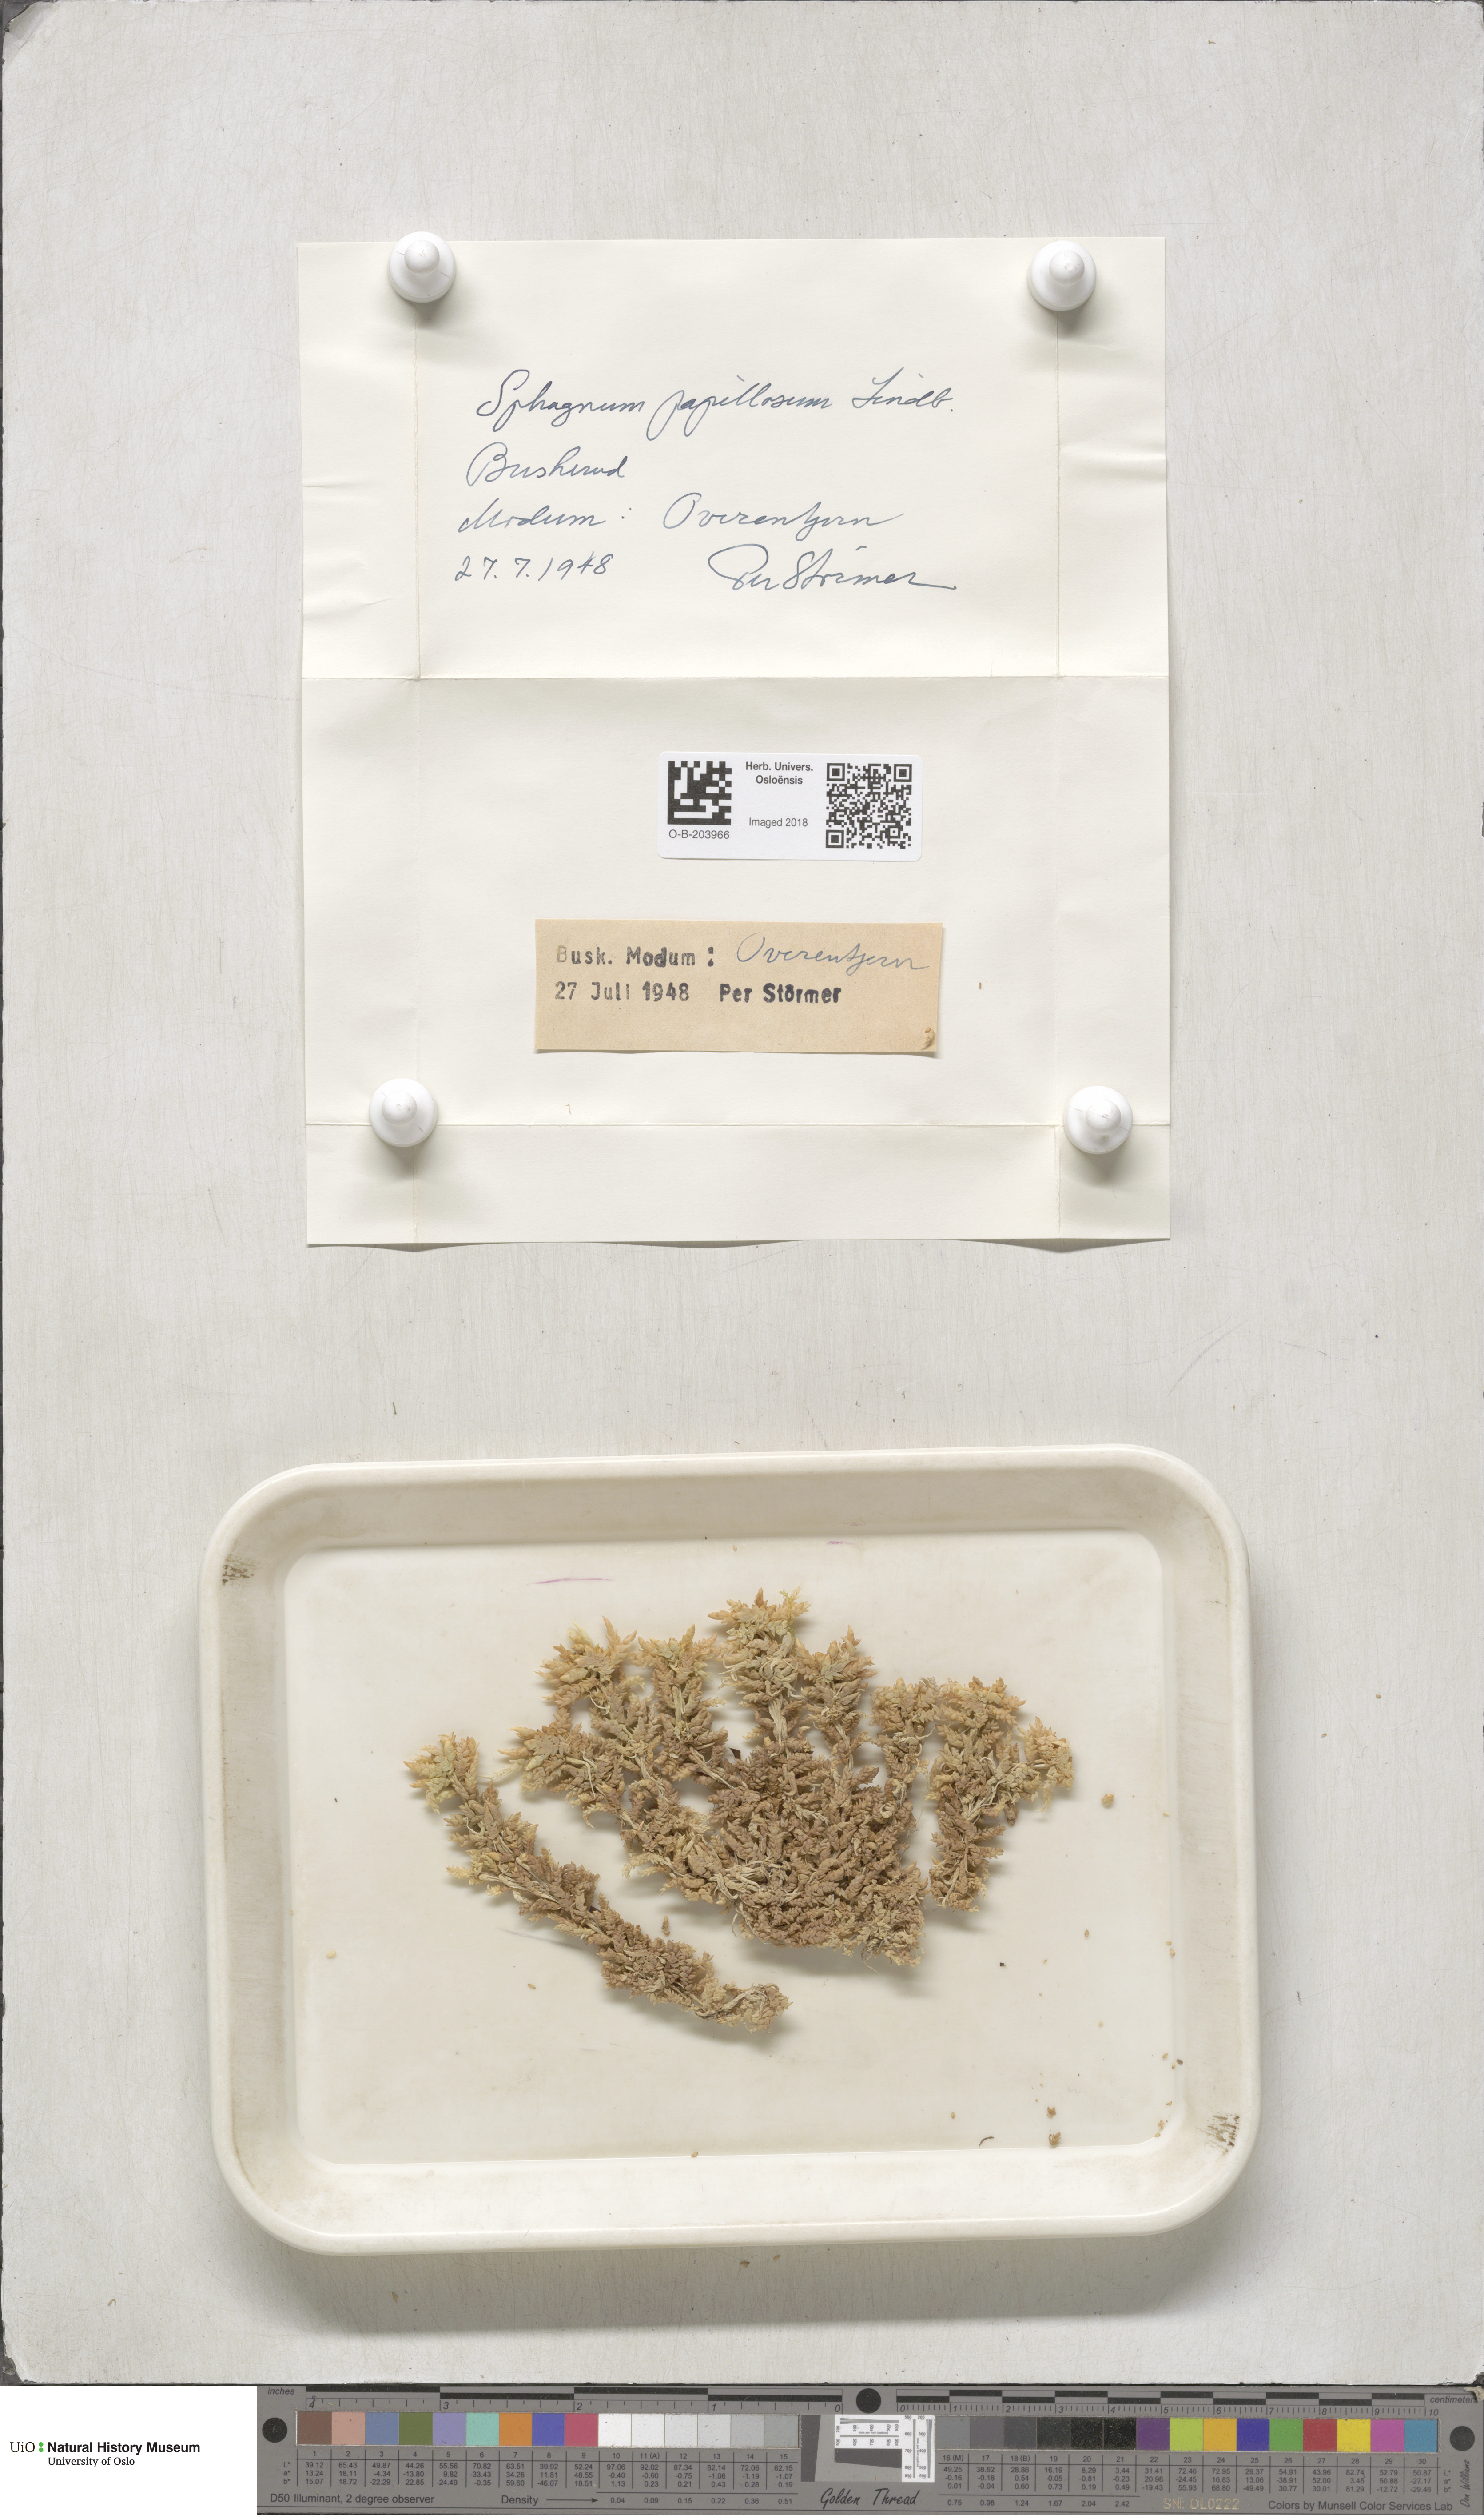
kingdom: Plantae
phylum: Bryophyta
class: Sphagnopsida
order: Sphagnales
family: Sphagnaceae
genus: Sphagnum
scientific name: Sphagnum papillosum
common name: Papillose peat moss
